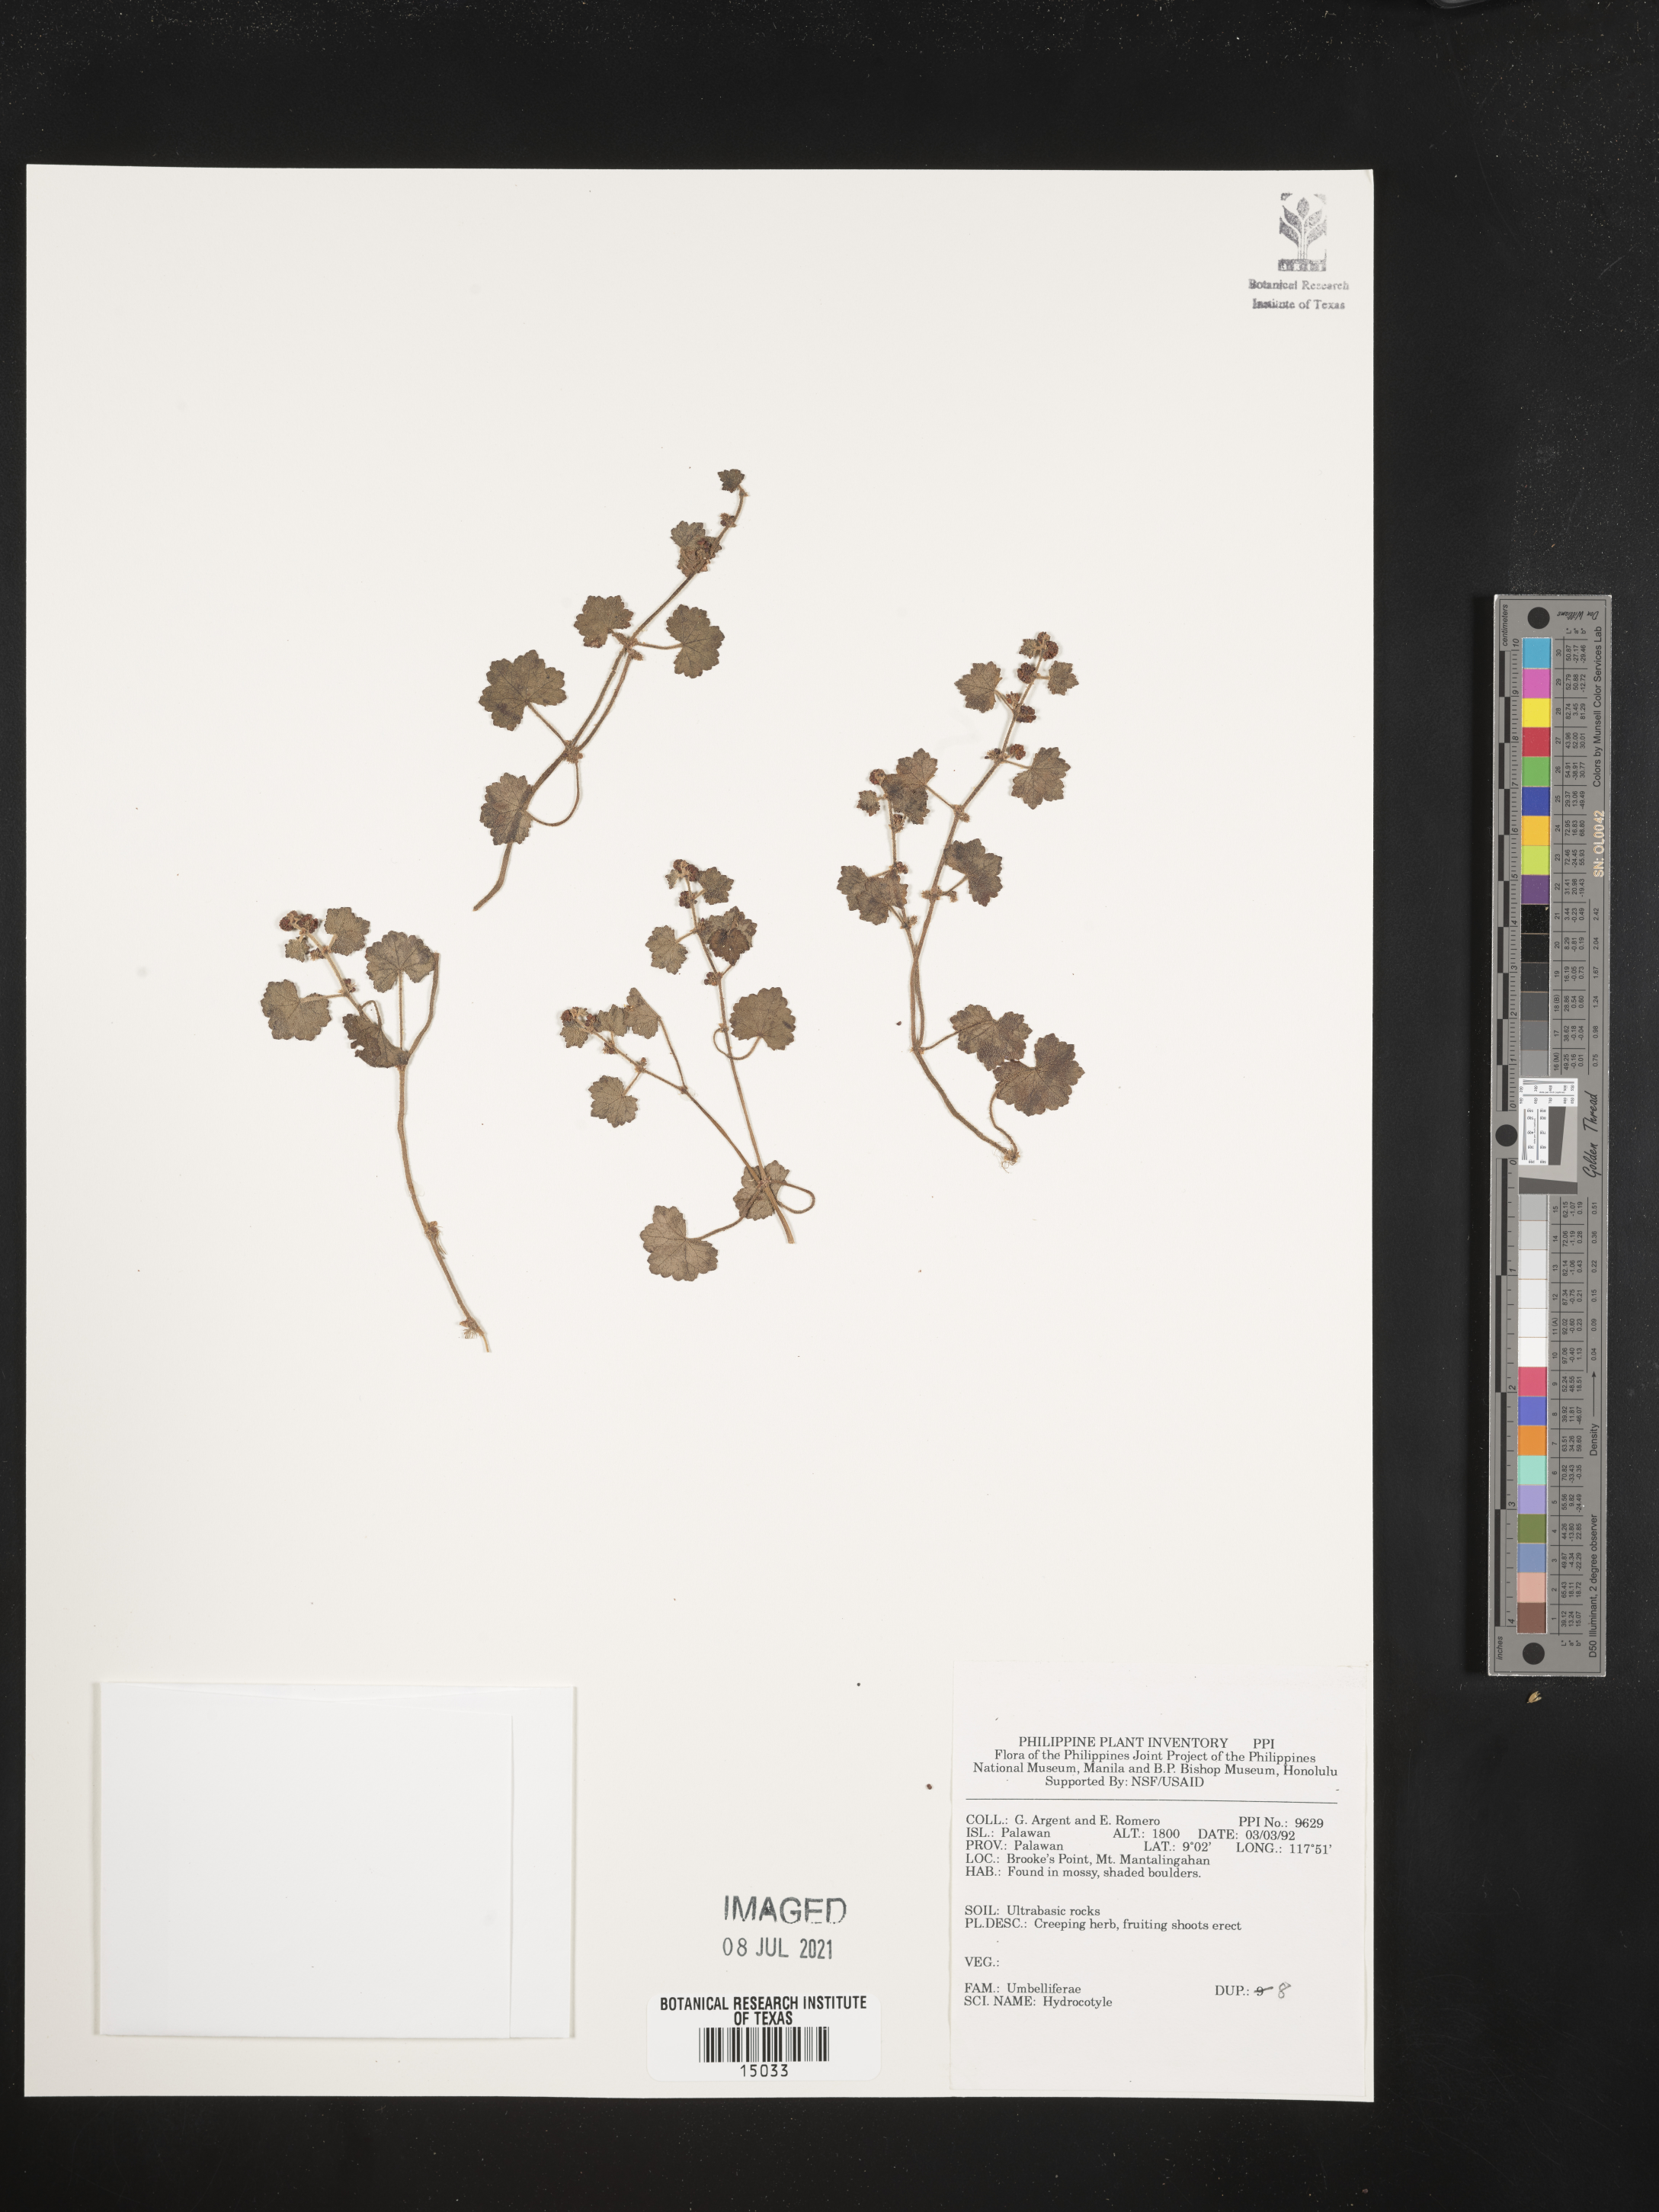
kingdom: Plantae
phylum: Tracheophyta
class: Magnoliopsida
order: Apiales
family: Araliaceae
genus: Hydrocotyle
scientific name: Hydrocotyle
